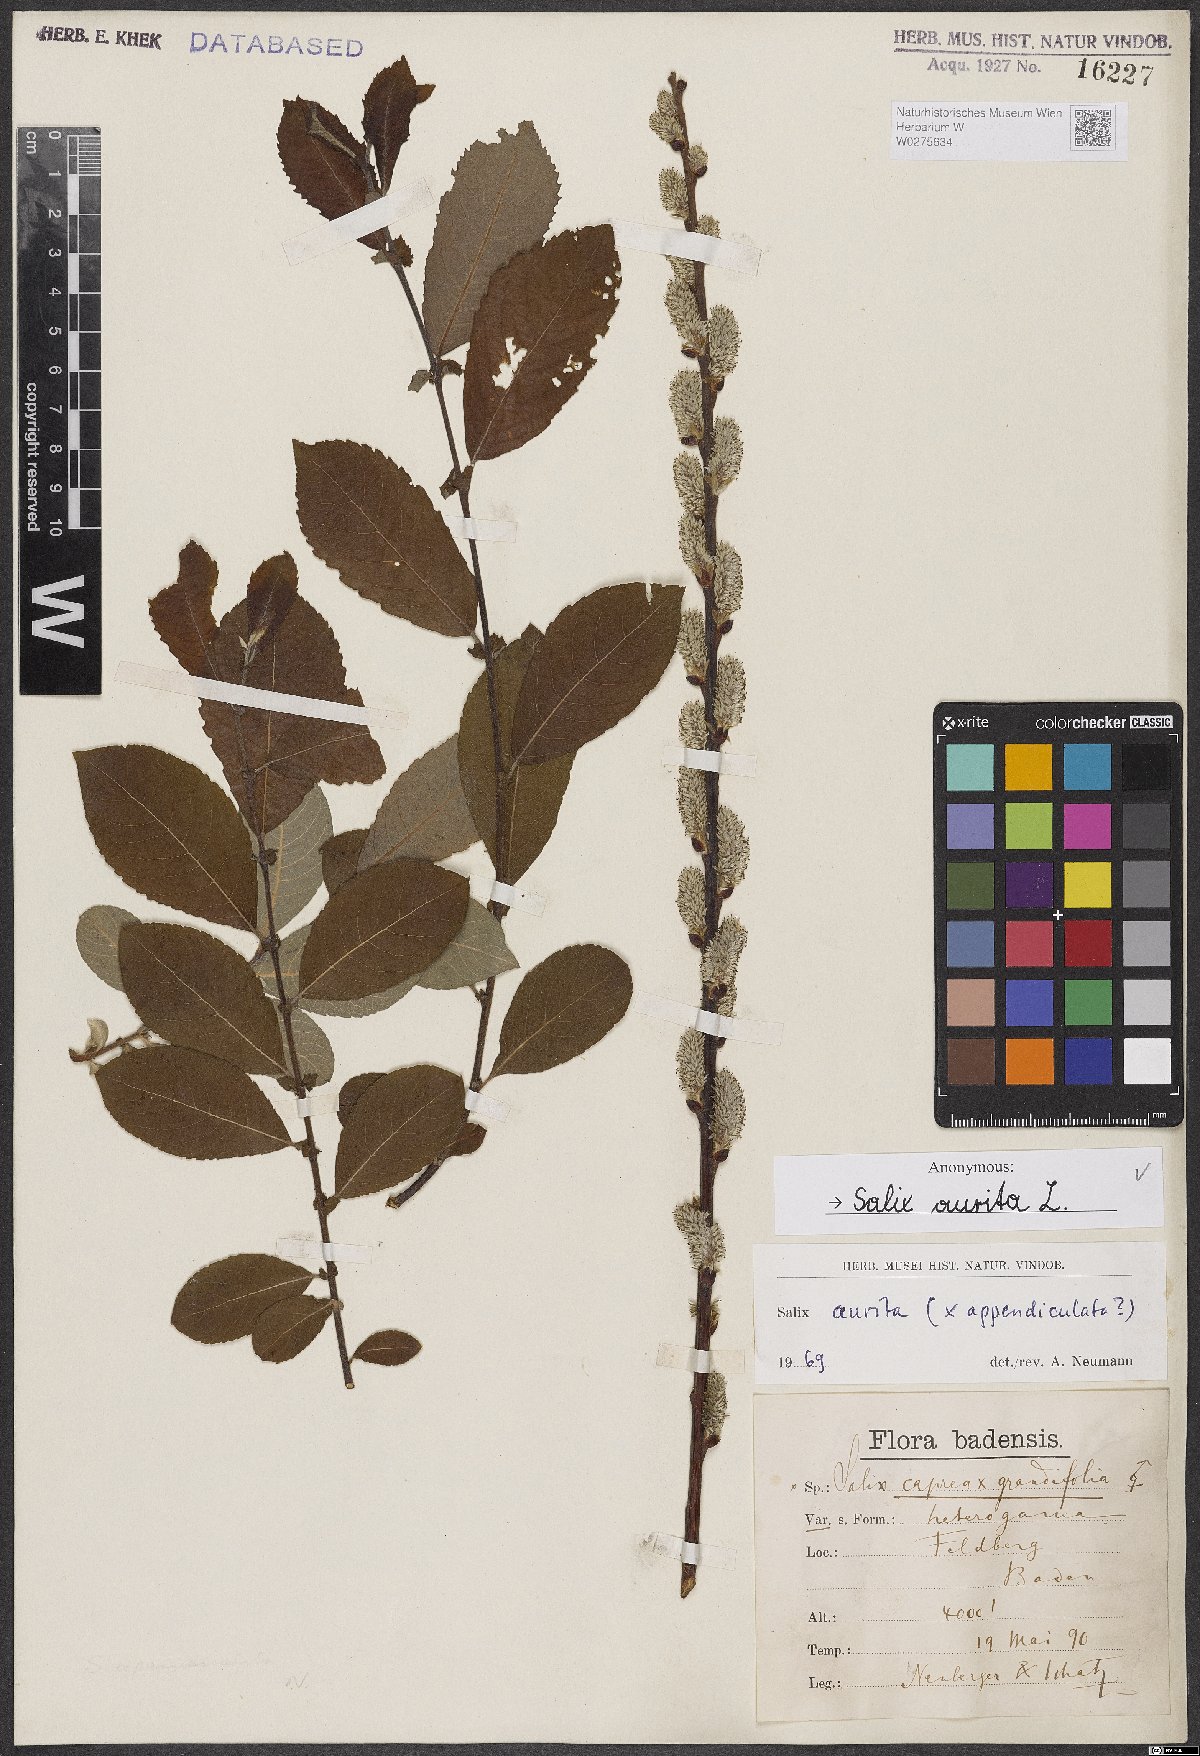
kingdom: Plantae
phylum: Tracheophyta
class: Magnoliopsida
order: Malpighiales
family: Salicaceae
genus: Salix
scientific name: Salix aurita
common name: Eared willow
